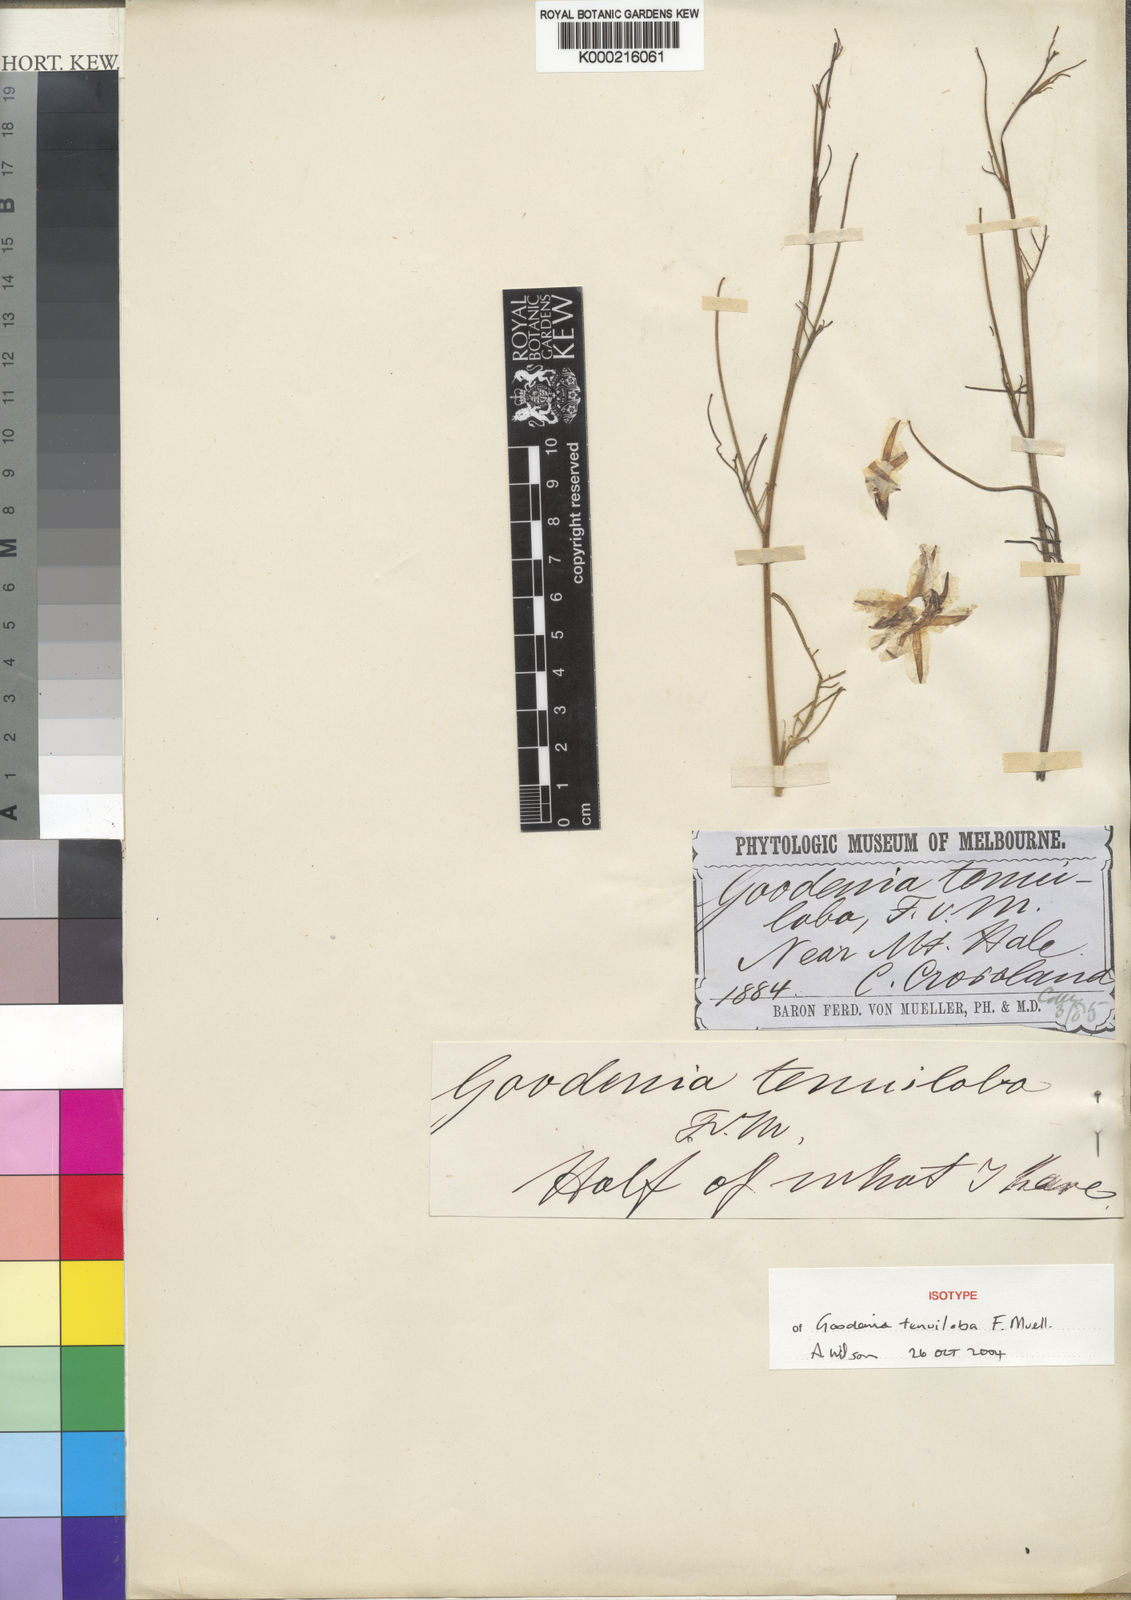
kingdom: Plantae
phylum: Tracheophyta
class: Magnoliopsida
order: Asterales
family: Goodeniaceae
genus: Goodenia
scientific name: Goodenia tenuiloba
